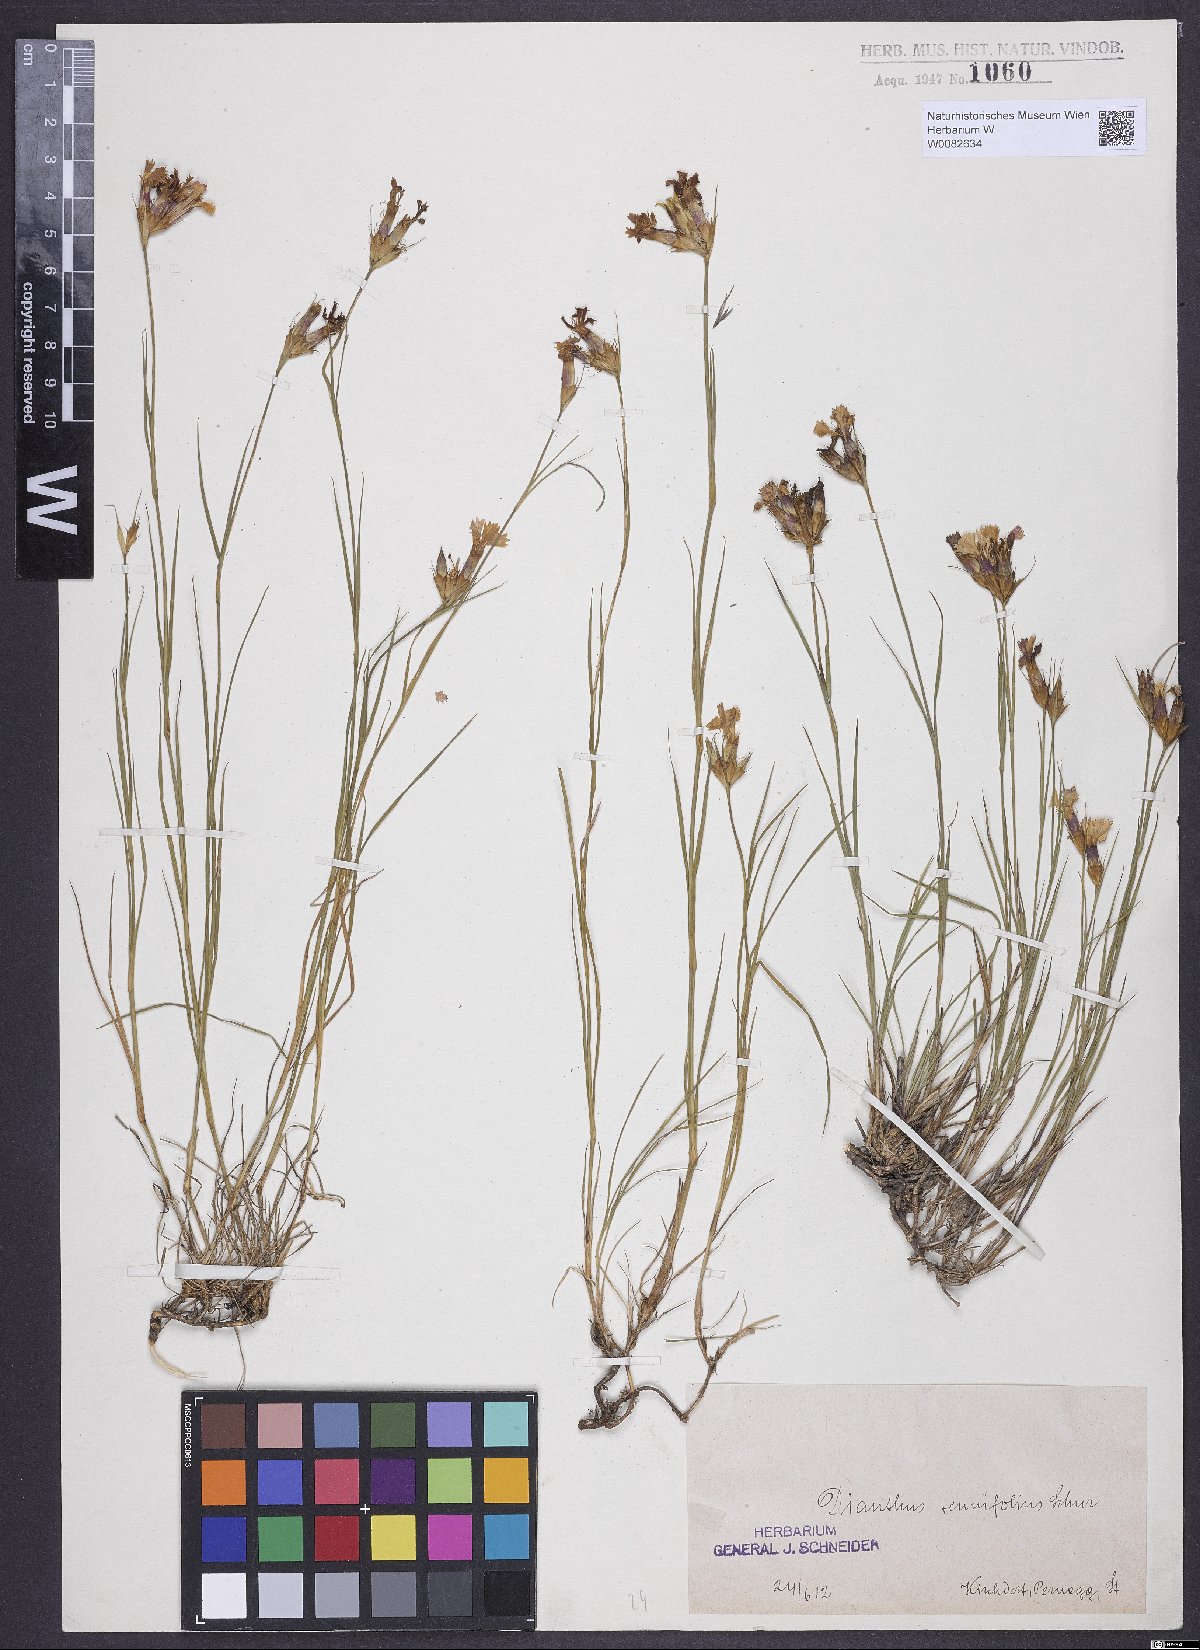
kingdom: Plantae
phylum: Tracheophyta
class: Magnoliopsida
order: Caryophyllales
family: Caryophyllaceae
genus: Dianthus
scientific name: Dianthus carthusianorum
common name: Carthusian pink
